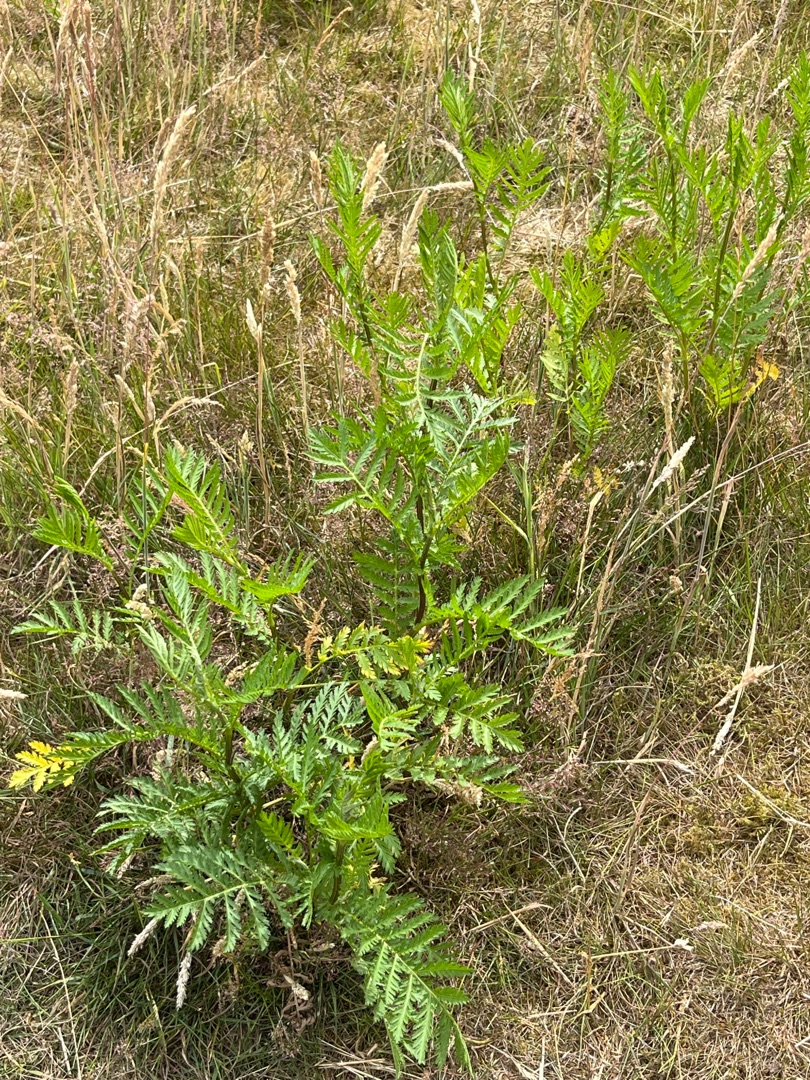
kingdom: Plantae
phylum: Tracheophyta
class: Magnoliopsida
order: Asterales
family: Asteraceae
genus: Tanacetum
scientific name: Tanacetum vulgare
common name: Rejnfan
